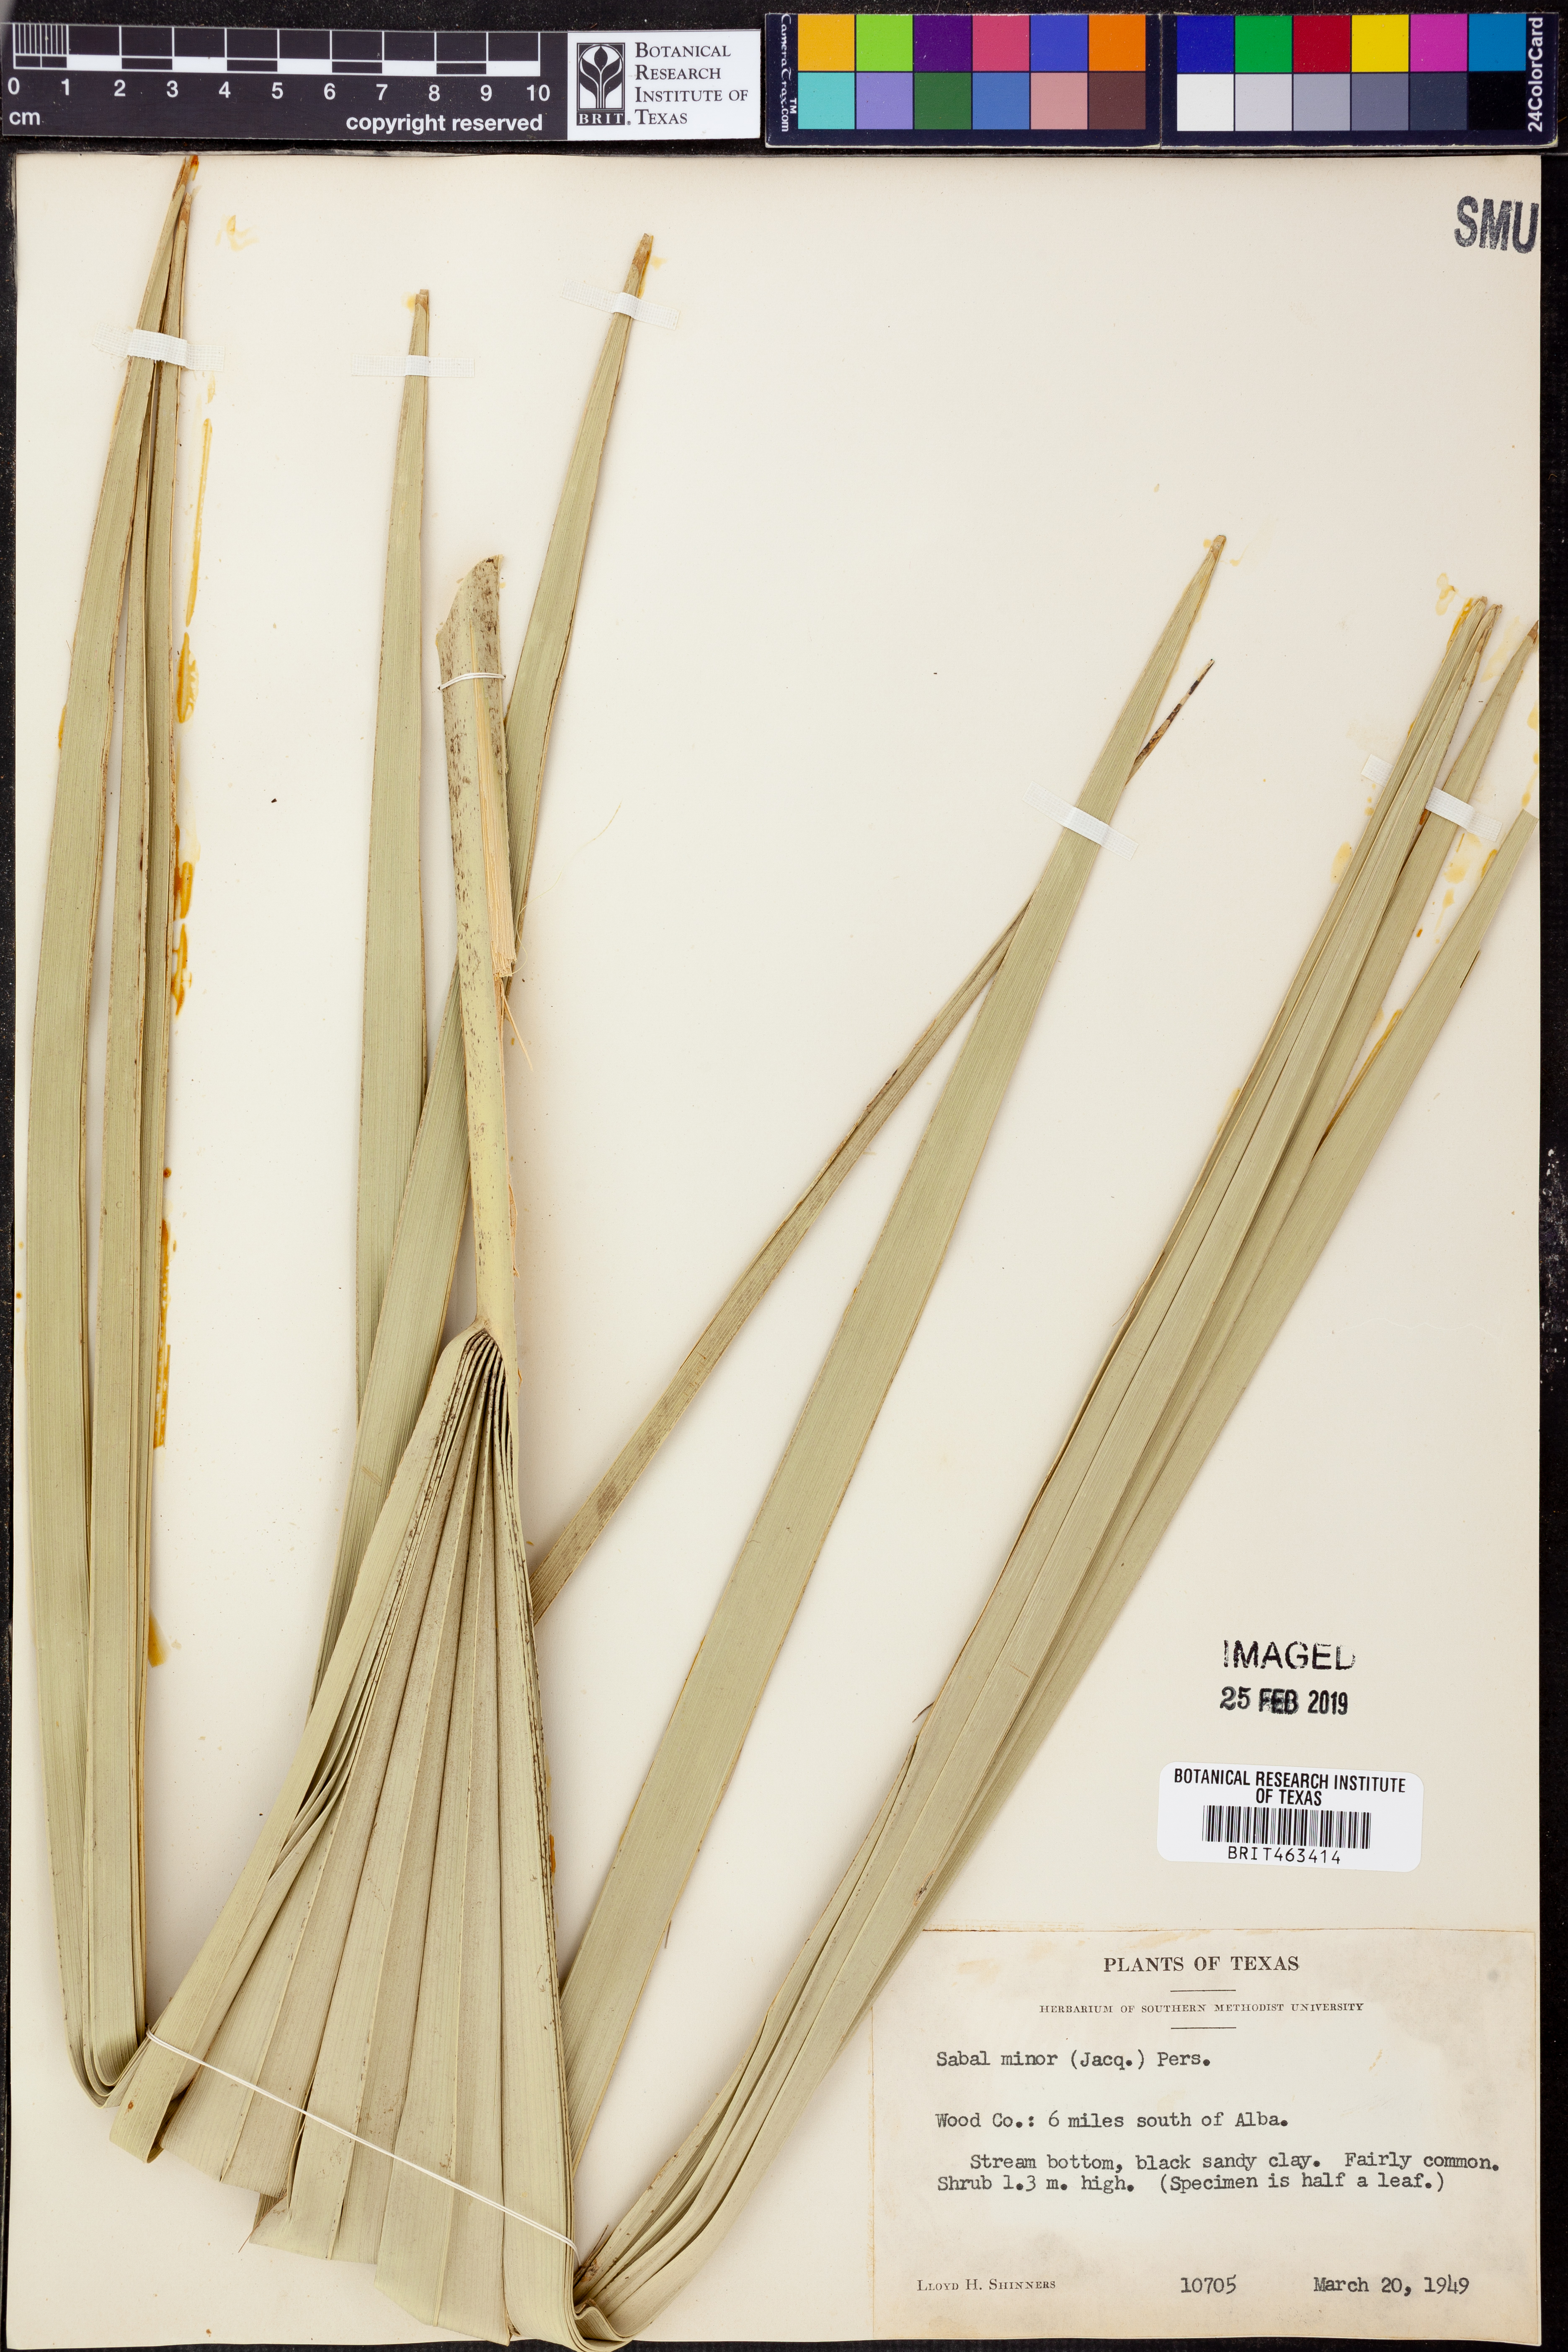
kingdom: Plantae
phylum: Tracheophyta
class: Liliopsida
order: Arecales
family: Arecaceae
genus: Sabal
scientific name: Sabal minor
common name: Dwarf palmetto
